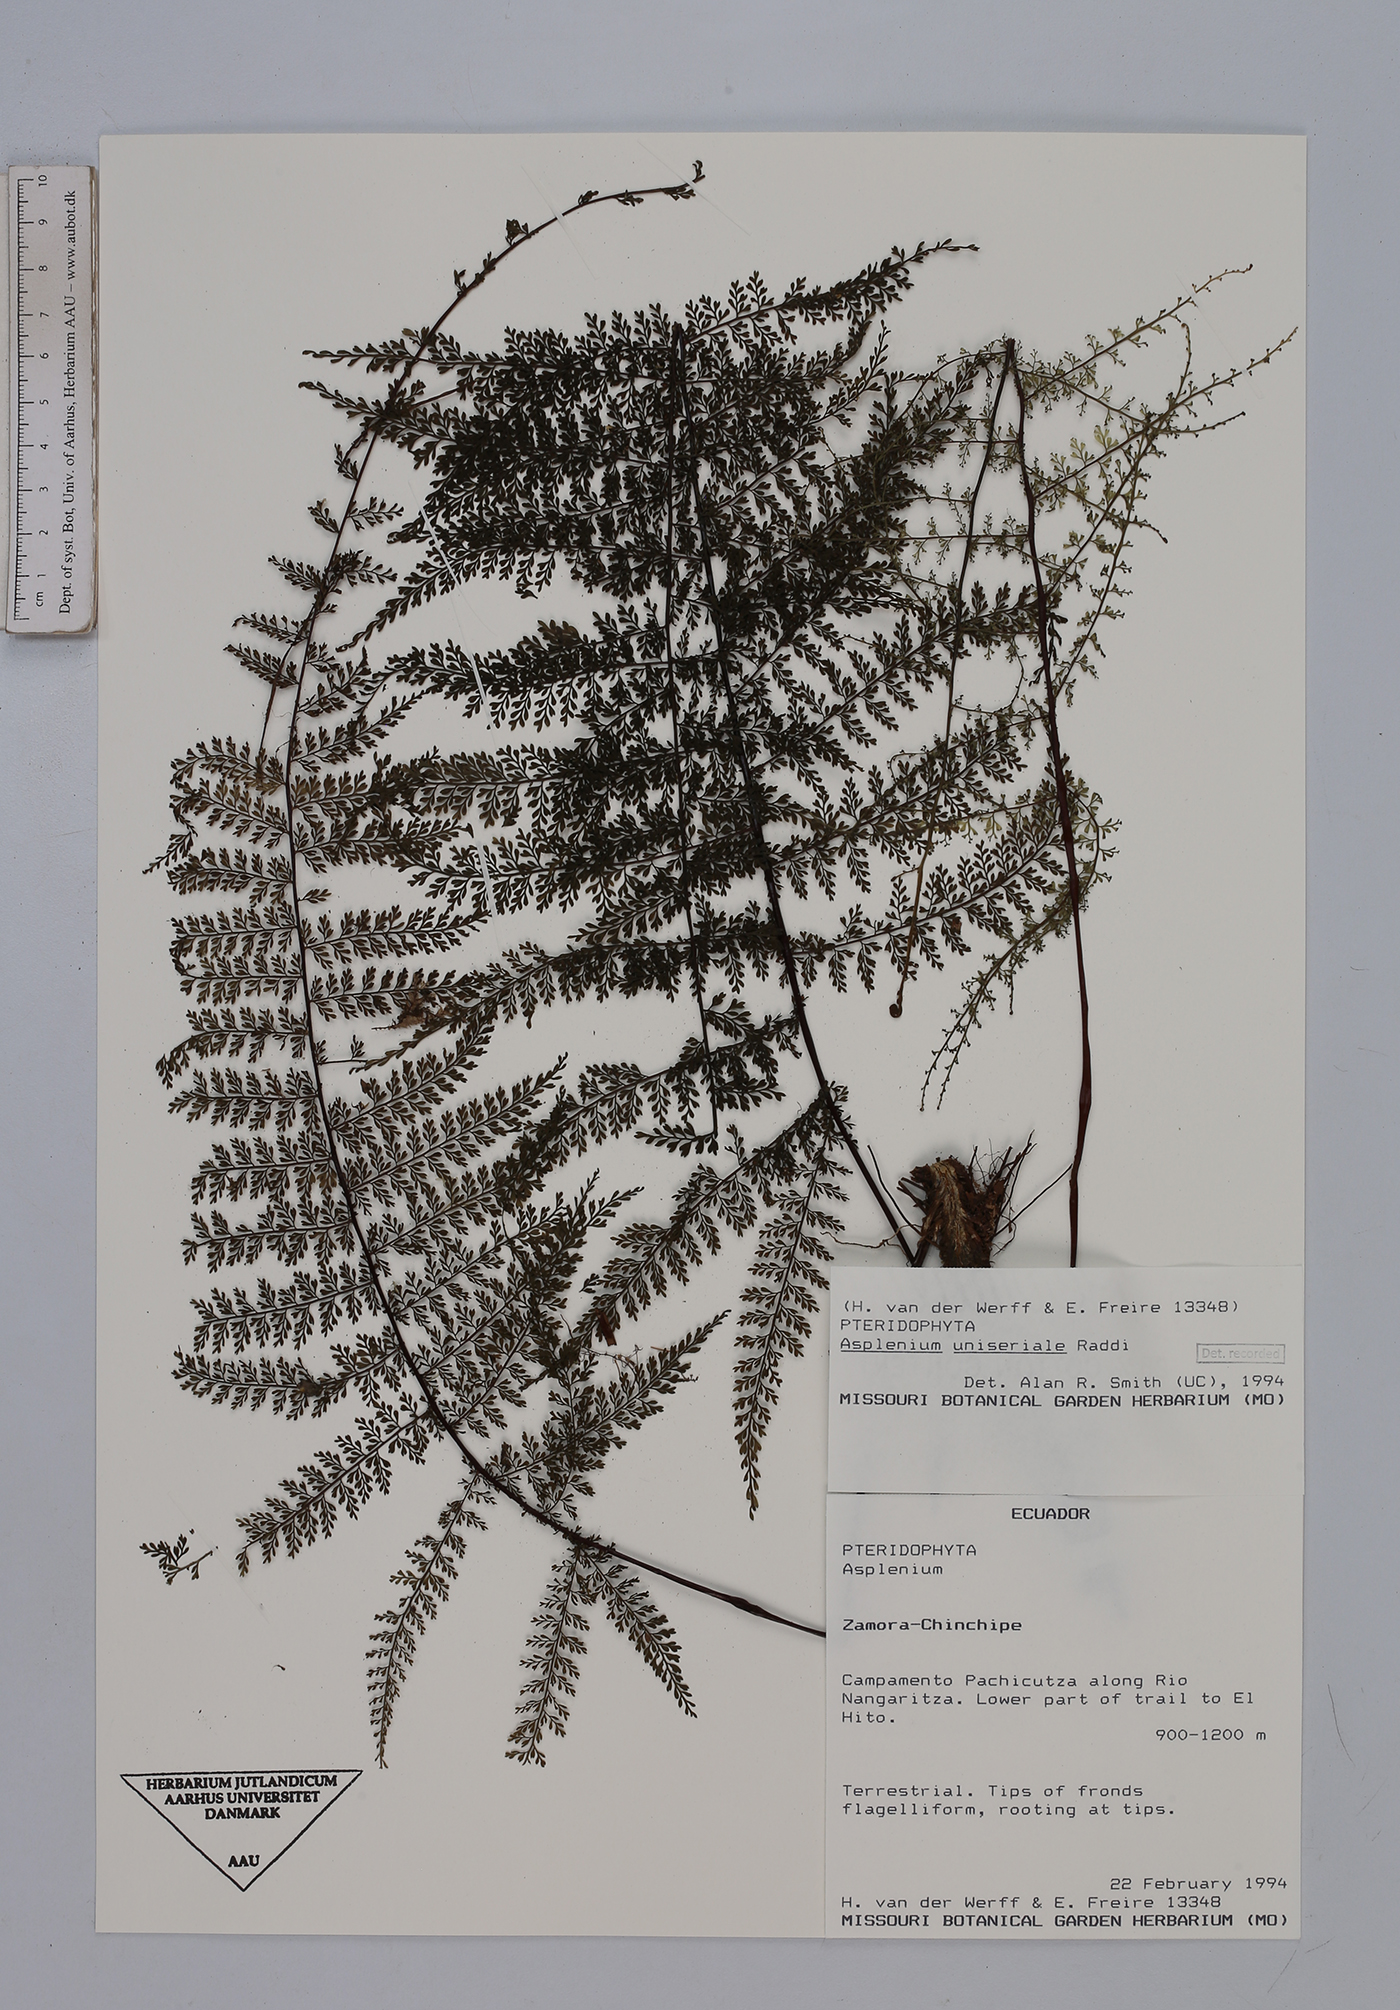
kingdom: Plantae
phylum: Tracheophyta
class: Polypodiopsida
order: Polypodiales
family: Aspleniaceae
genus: Asplenium
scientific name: Asplenium uniseriale
